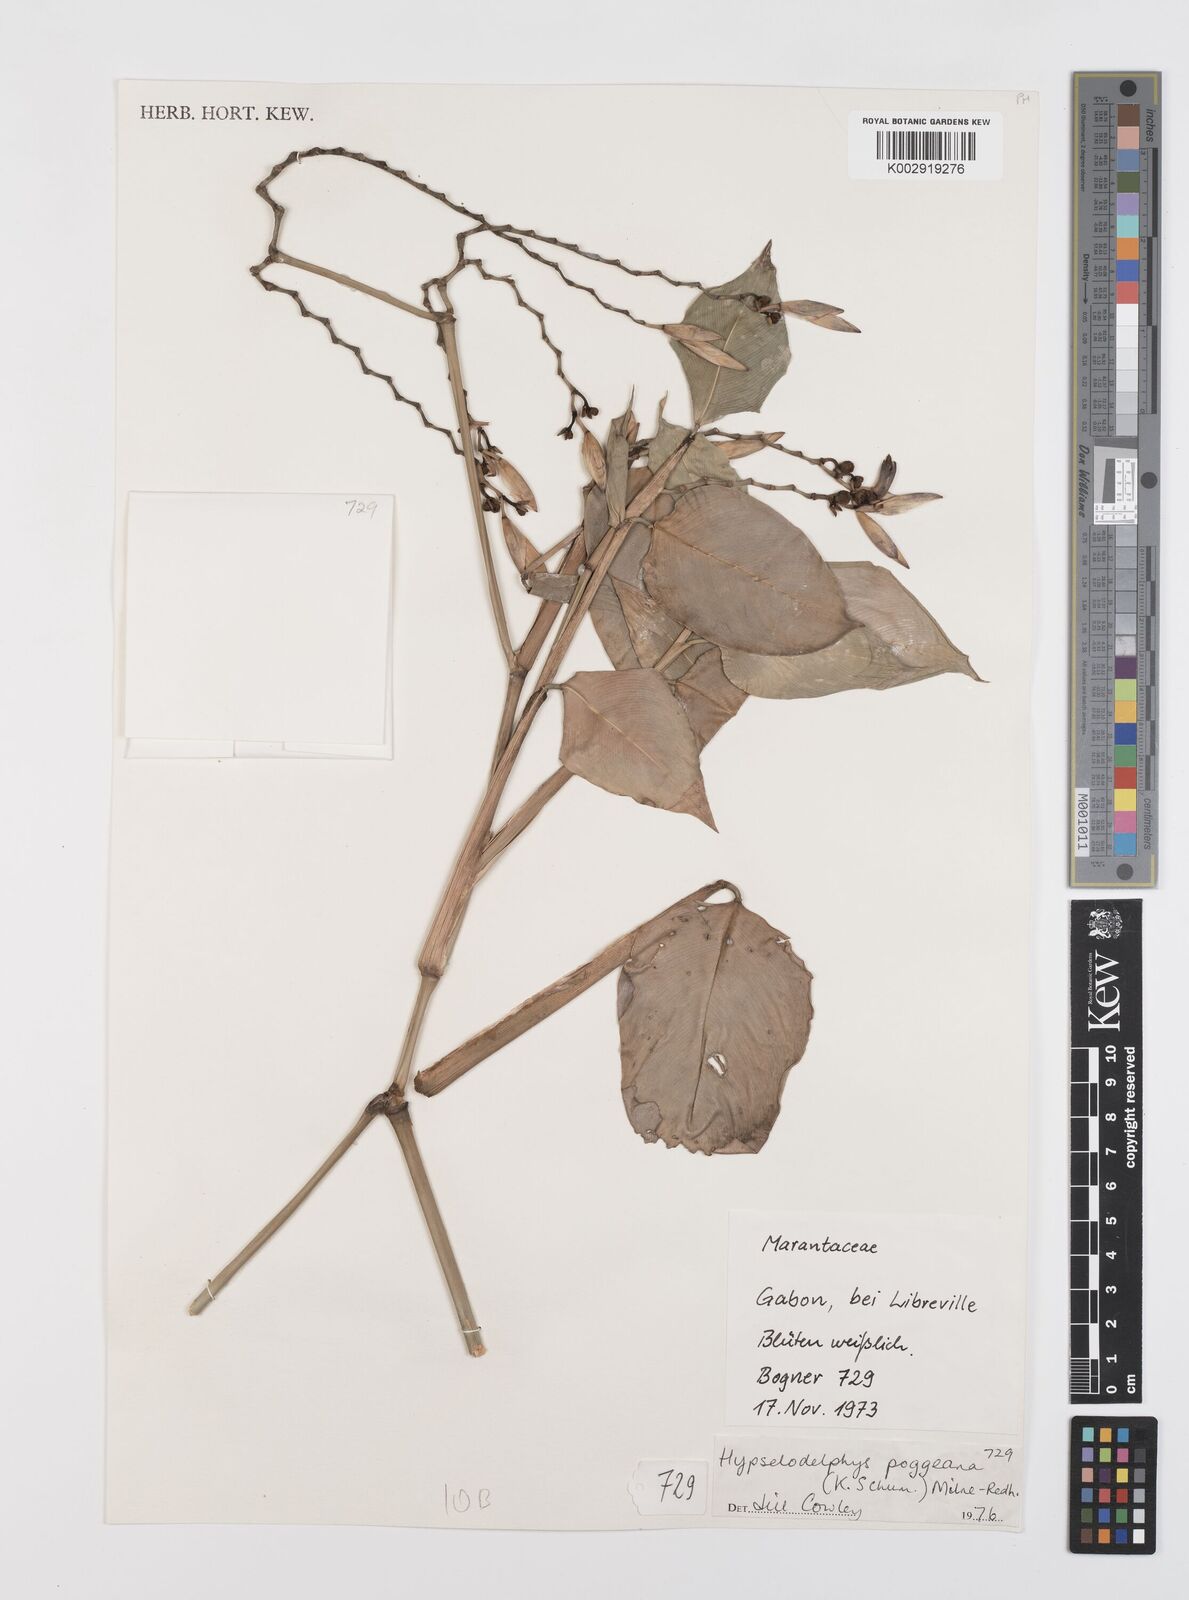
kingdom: Plantae
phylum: Tracheophyta
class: Liliopsida
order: Zingiberales
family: Marantaceae
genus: Hypselodelphys
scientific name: Hypselodelphys poggeana
